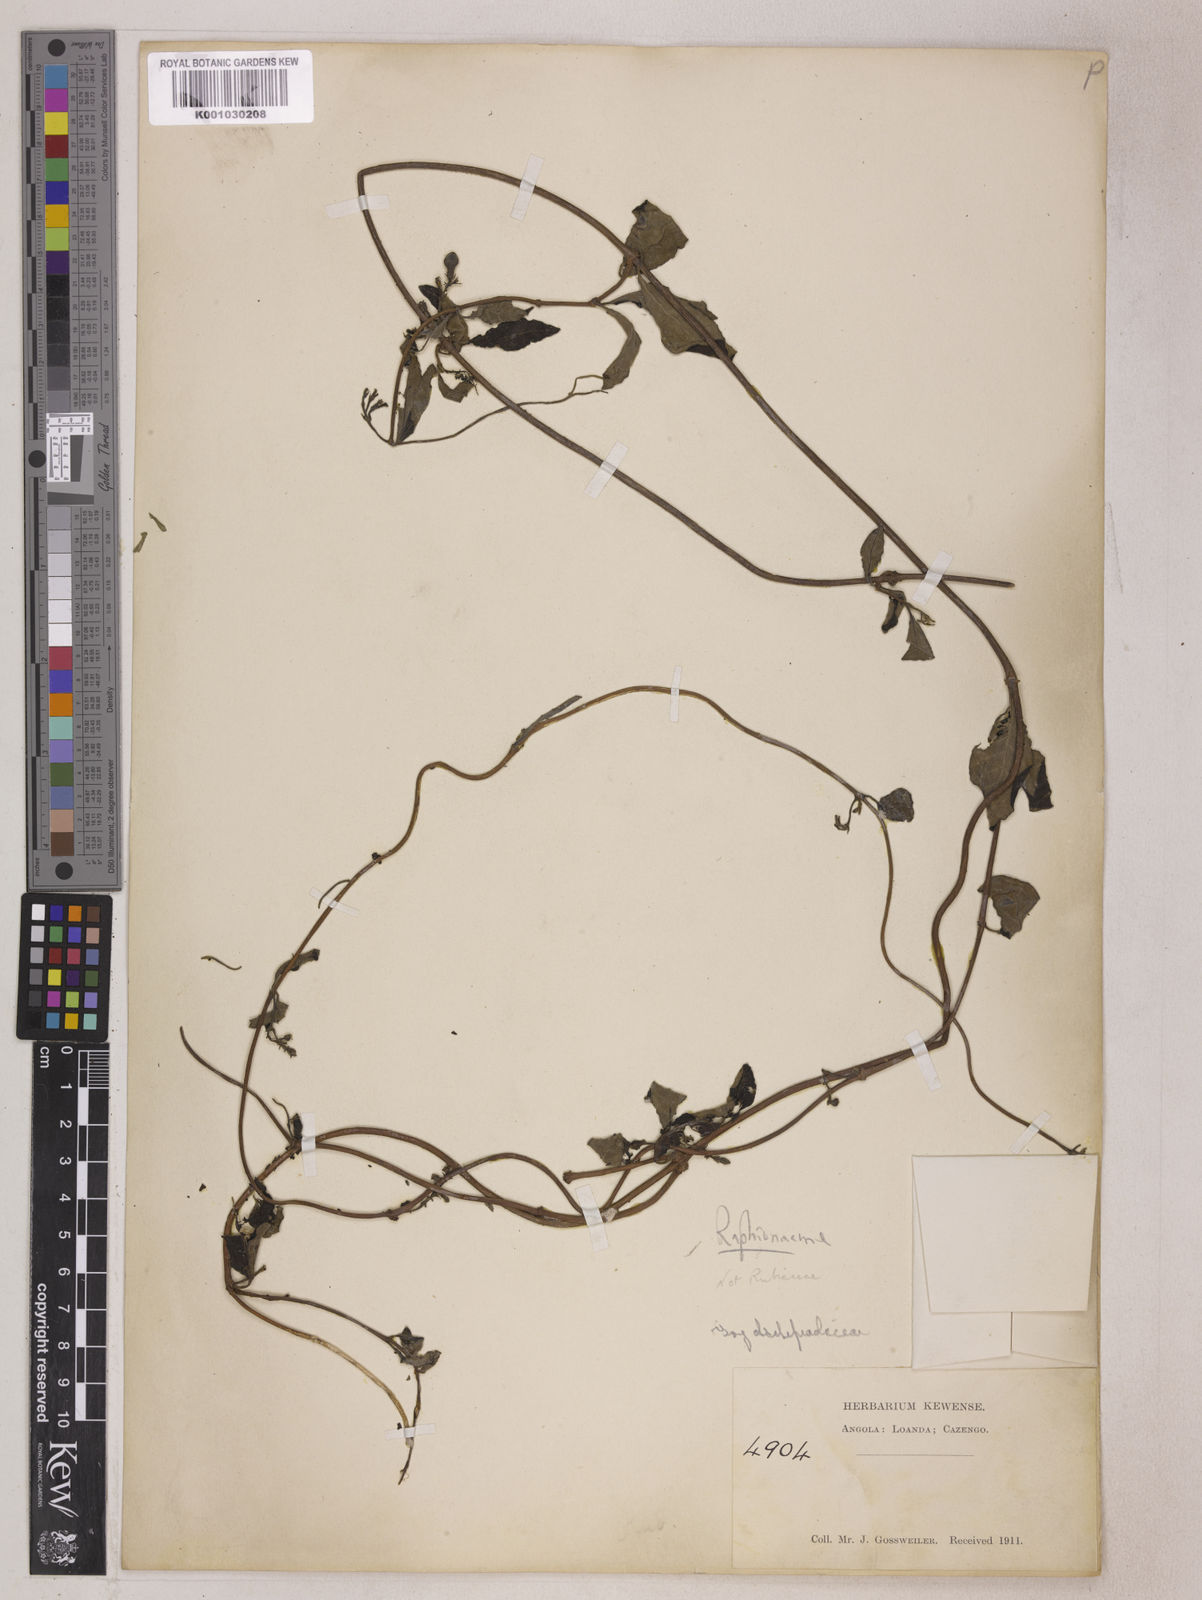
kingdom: Plantae
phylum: Tracheophyta
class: Magnoliopsida
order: Gentianales
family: Apocynaceae
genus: Raphionacme
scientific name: Raphionacme
